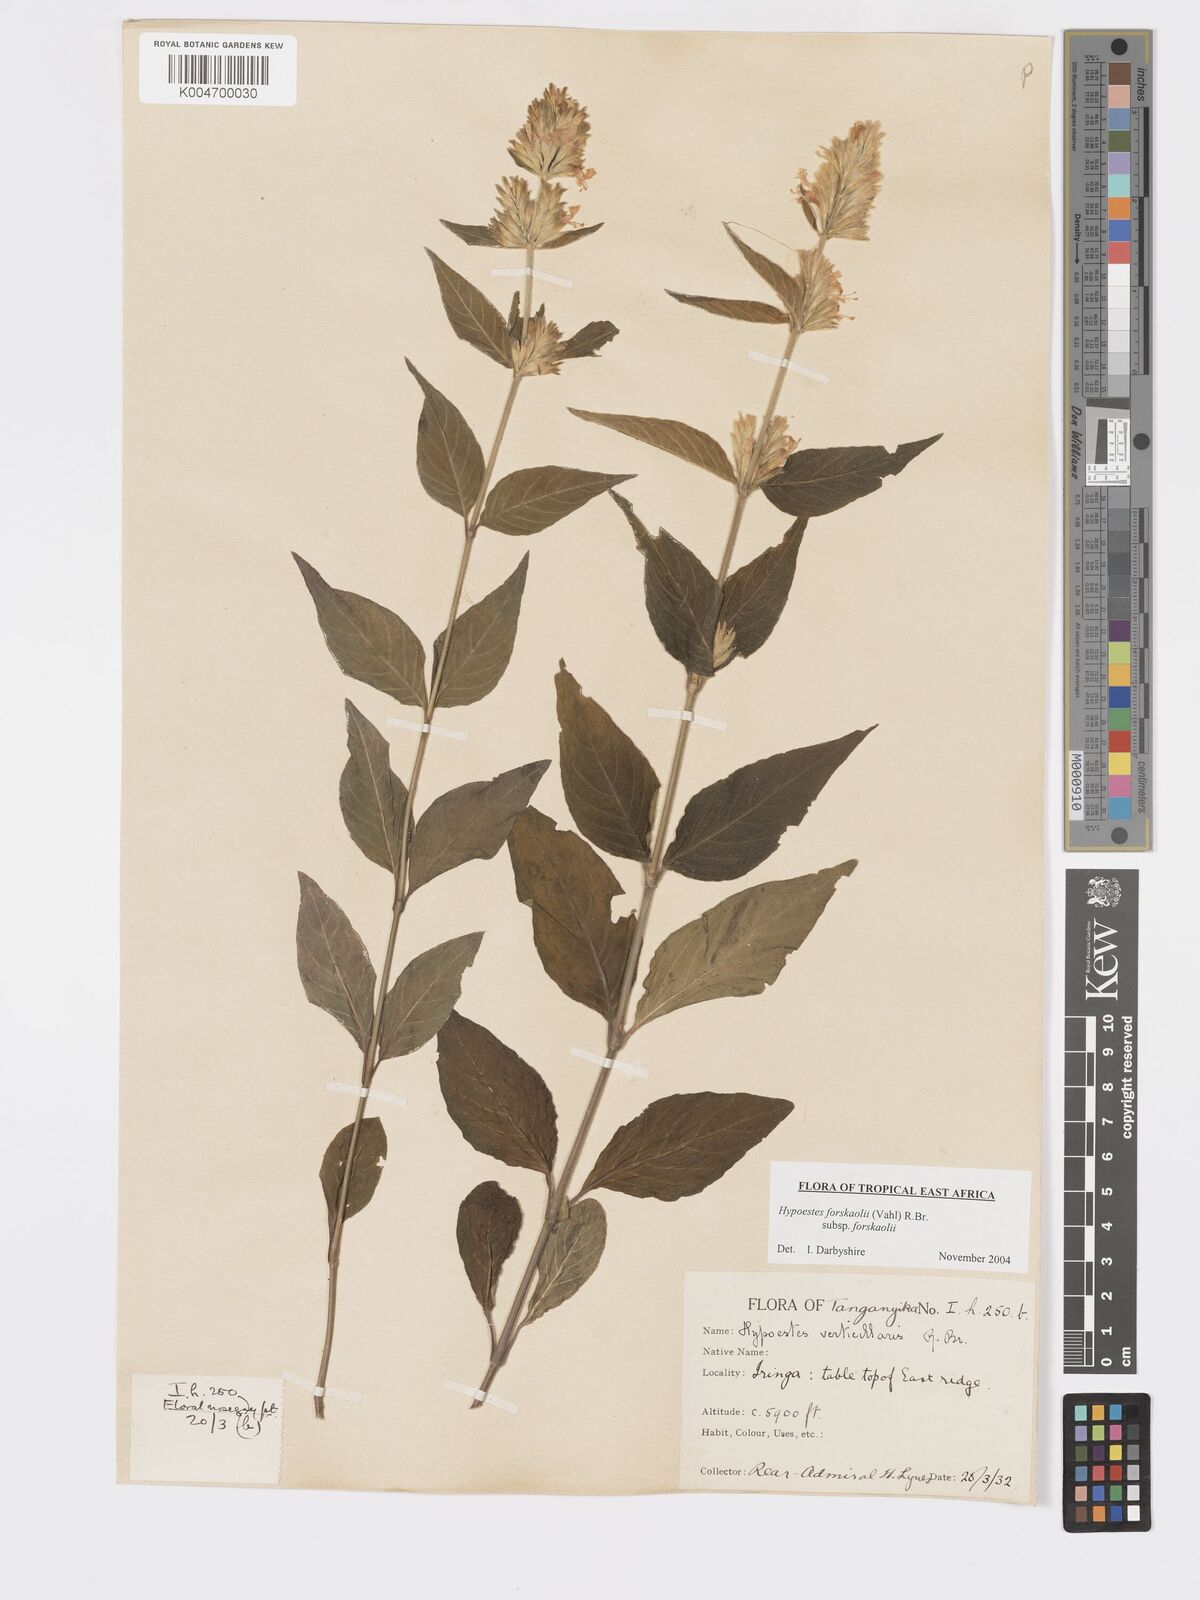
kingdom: Plantae
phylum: Tracheophyta
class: Magnoliopsida
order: Lamiales
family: Acanthaceae
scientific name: Acanthaceae
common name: Acanthaceae
